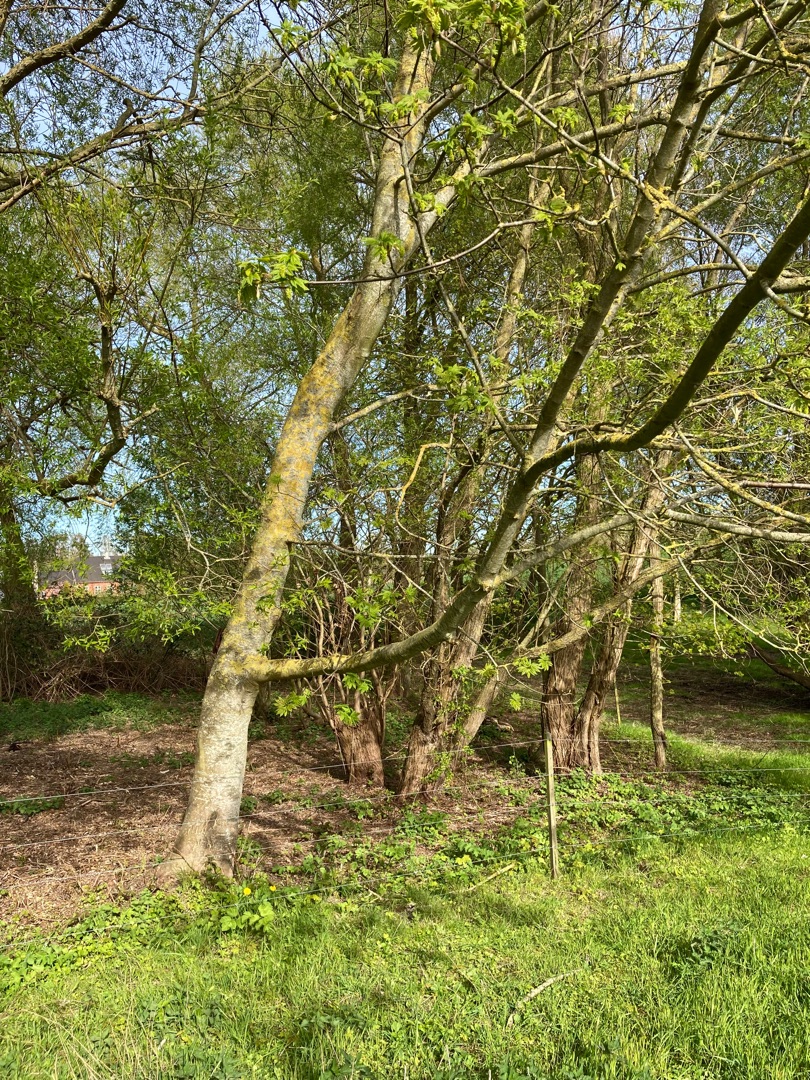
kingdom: Plantae
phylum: Tracheophyta
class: Magnoliopsida
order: Sapindales
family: Sapindaceae
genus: Acer
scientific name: Acer pseudoplatanus
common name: Ahorn
